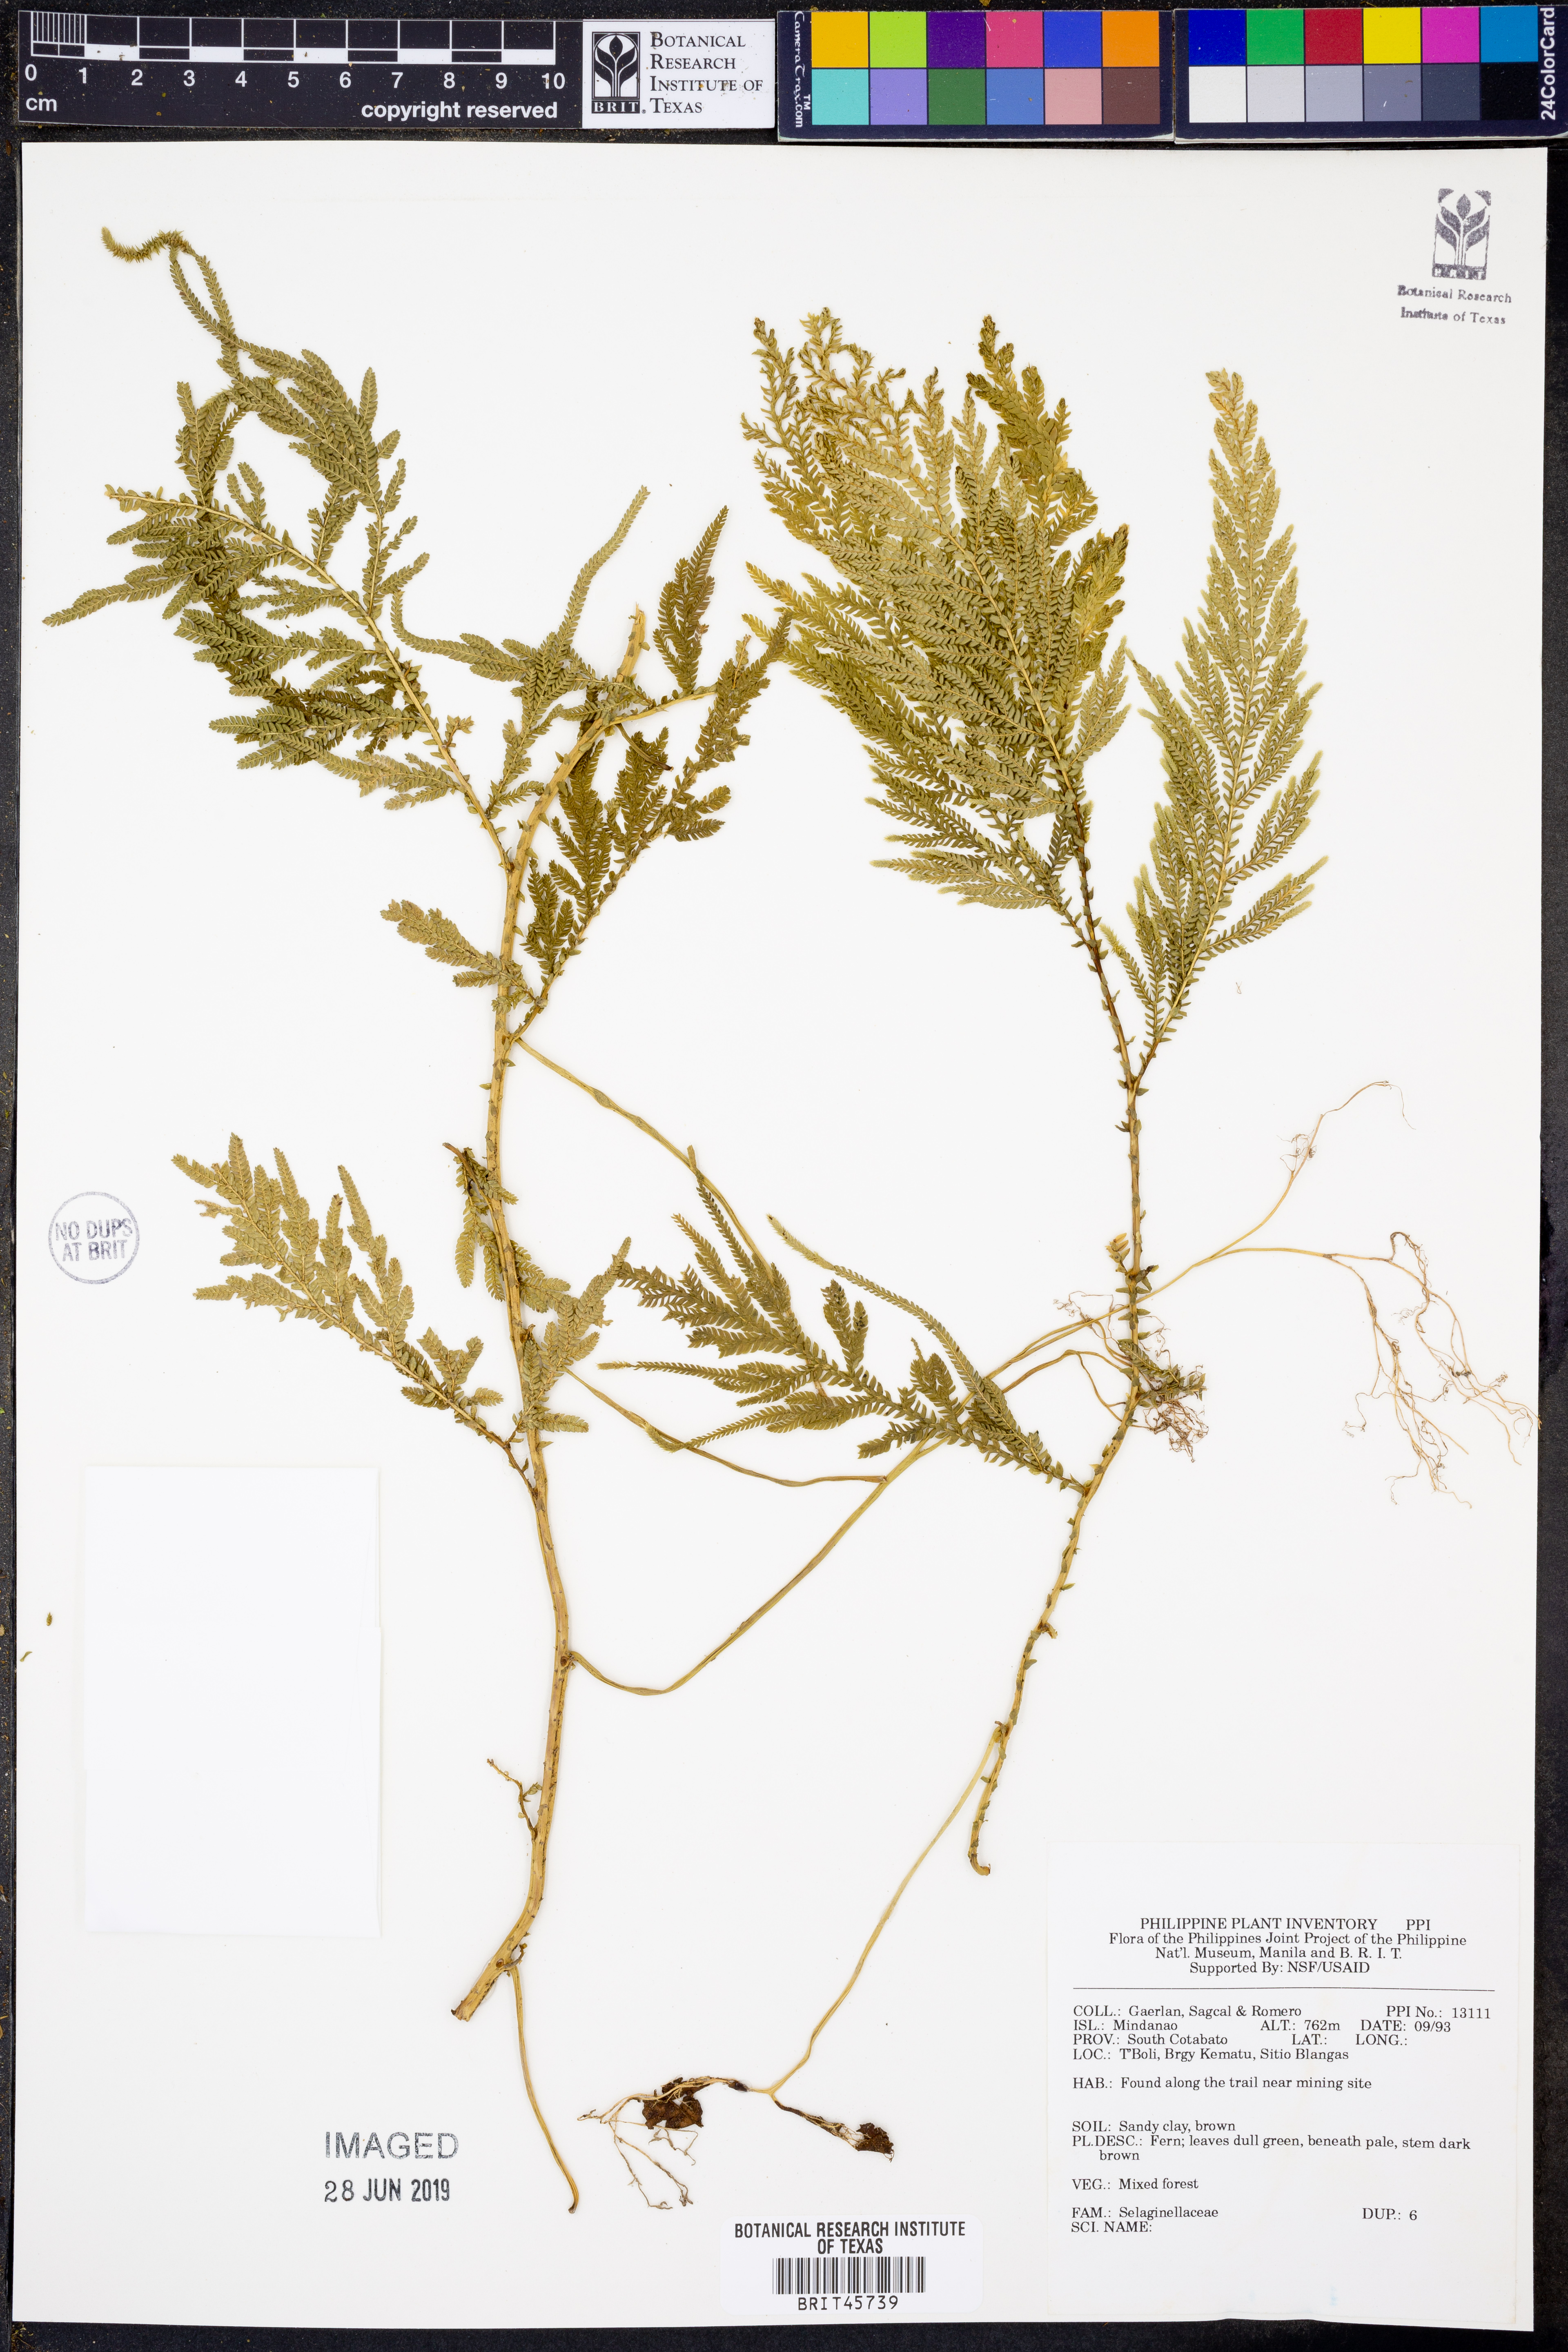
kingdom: Plantae
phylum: Tracheophyta
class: Lycopodiopsida
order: Selaginellales
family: Selaginellaceae
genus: Selaginella
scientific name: Selaginella
